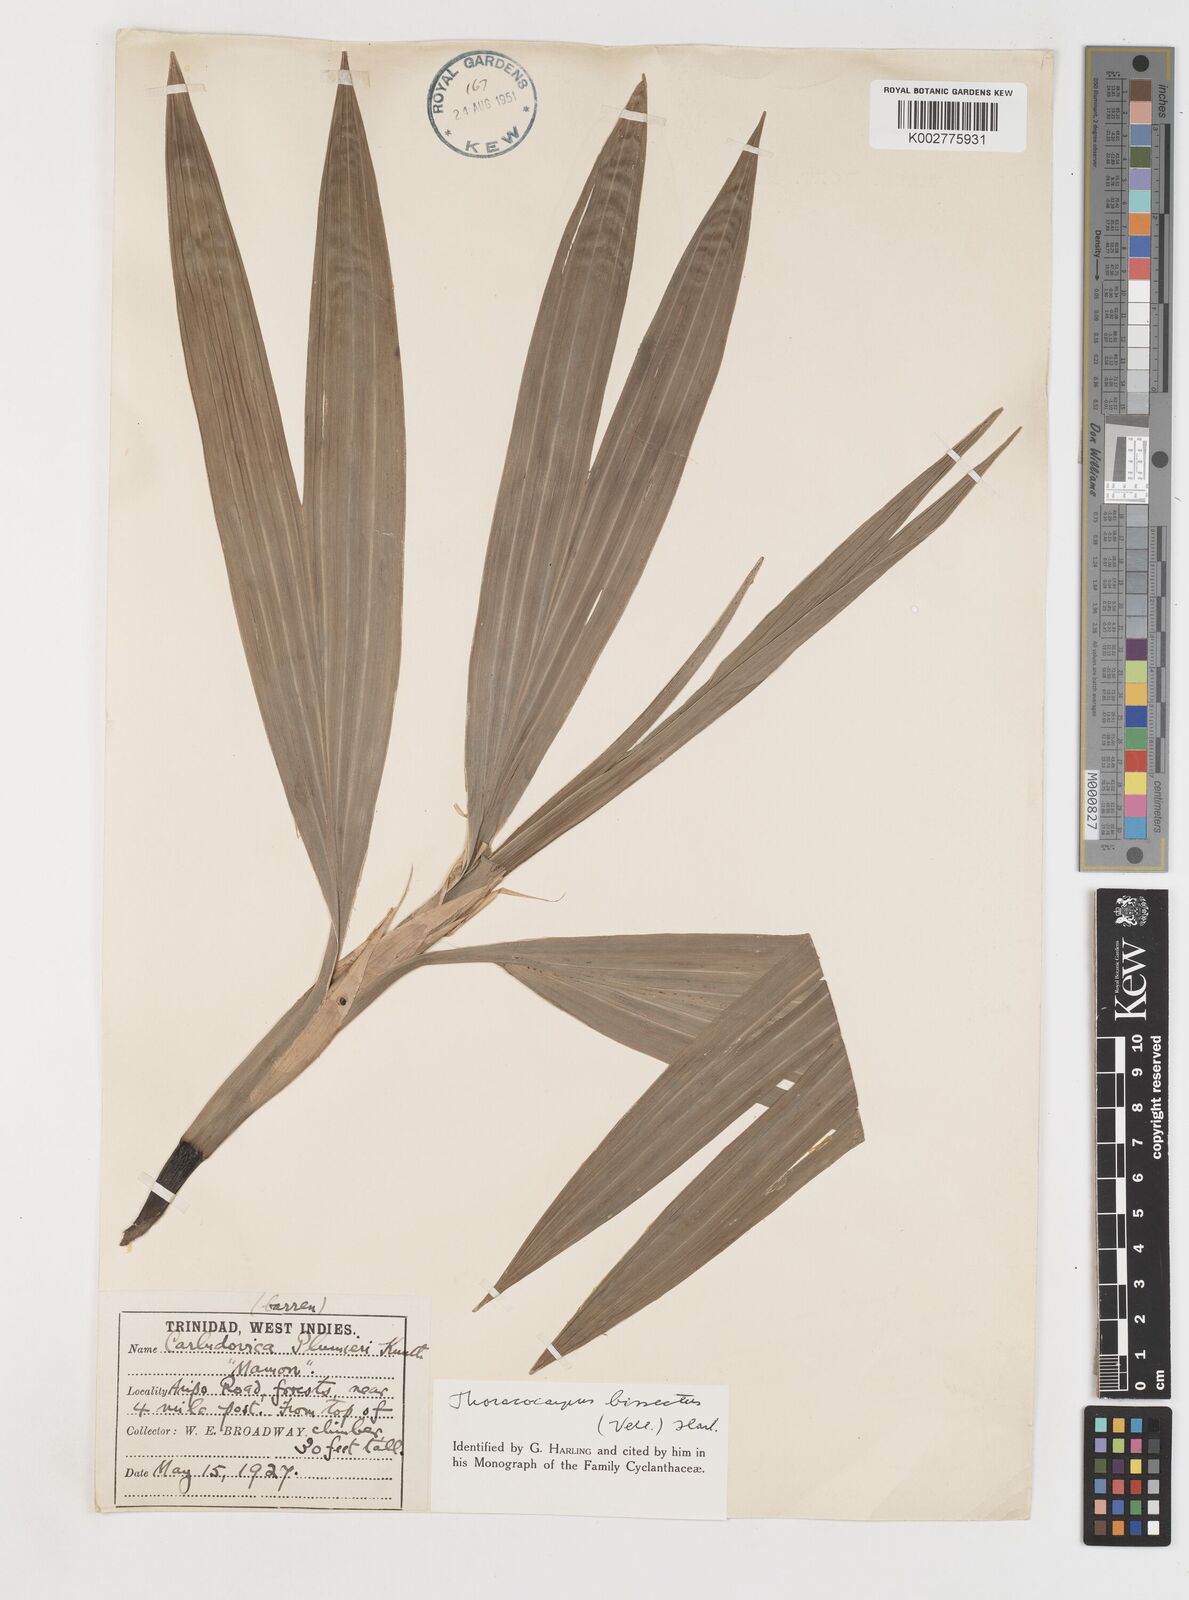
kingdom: Plantae
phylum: Tracheophyta
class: Liliopsida
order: Pandanales
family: Cyclanthaceae
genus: Thoracocarpus
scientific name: Thoracocarpus bissectus
